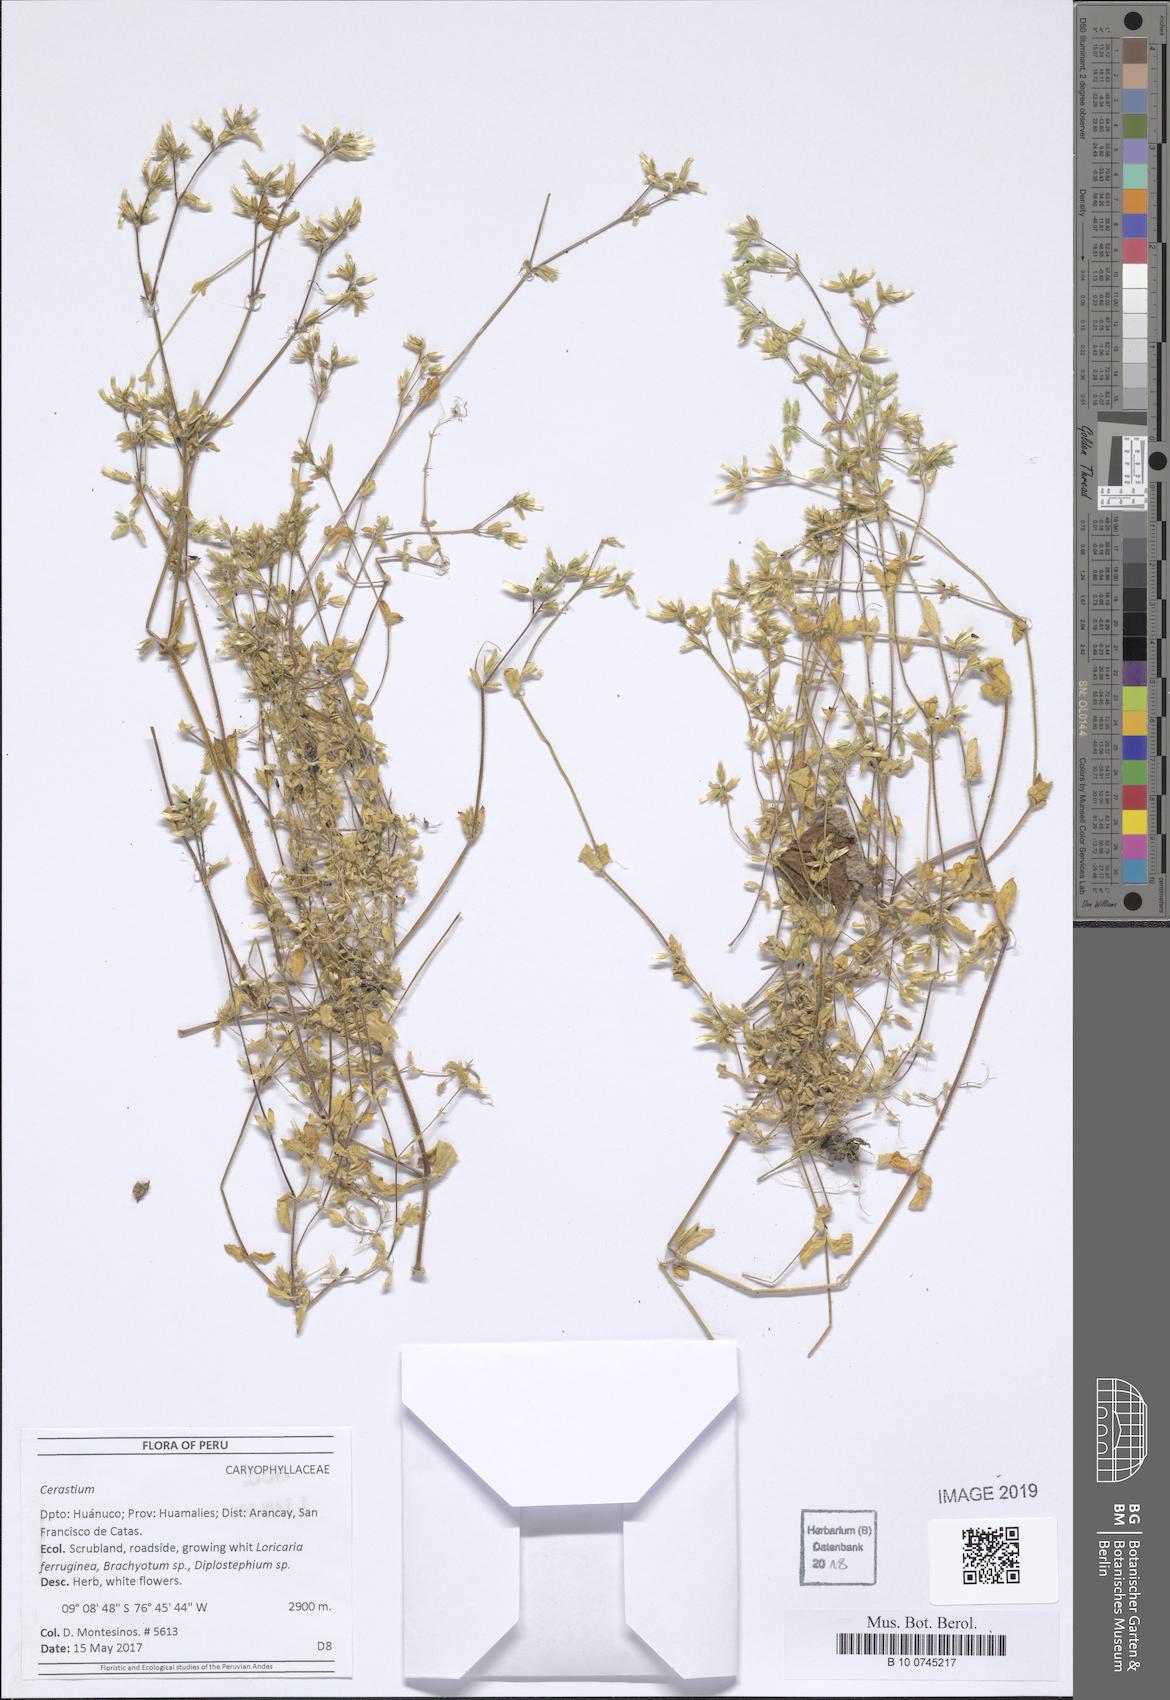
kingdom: Plantae
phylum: Tracheophyta
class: Magnoliopsida
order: Caryophyllales
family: Caryophyllaceae
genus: Cerastium
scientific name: Cerastium
